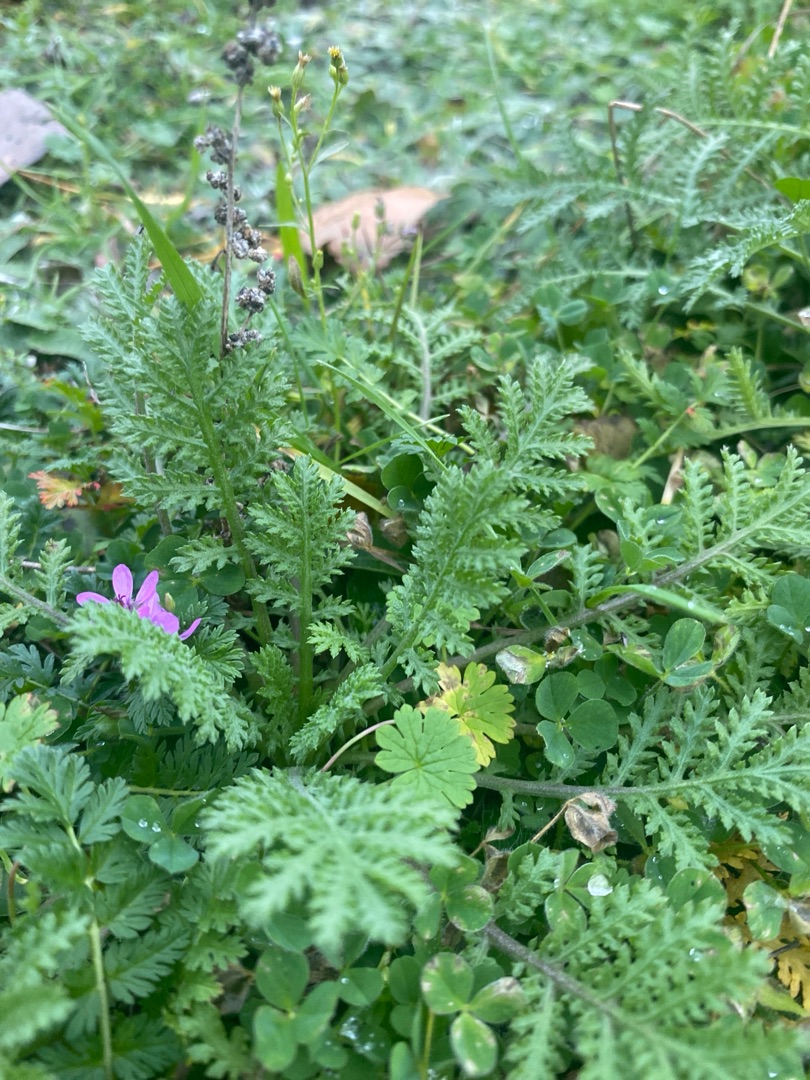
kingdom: Plantae
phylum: Tracheophyta
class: Magnoliopsida
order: Geraniales
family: Geraniaceae
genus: Erodium
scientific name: Erodium cicutarium
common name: Hejrenæb
